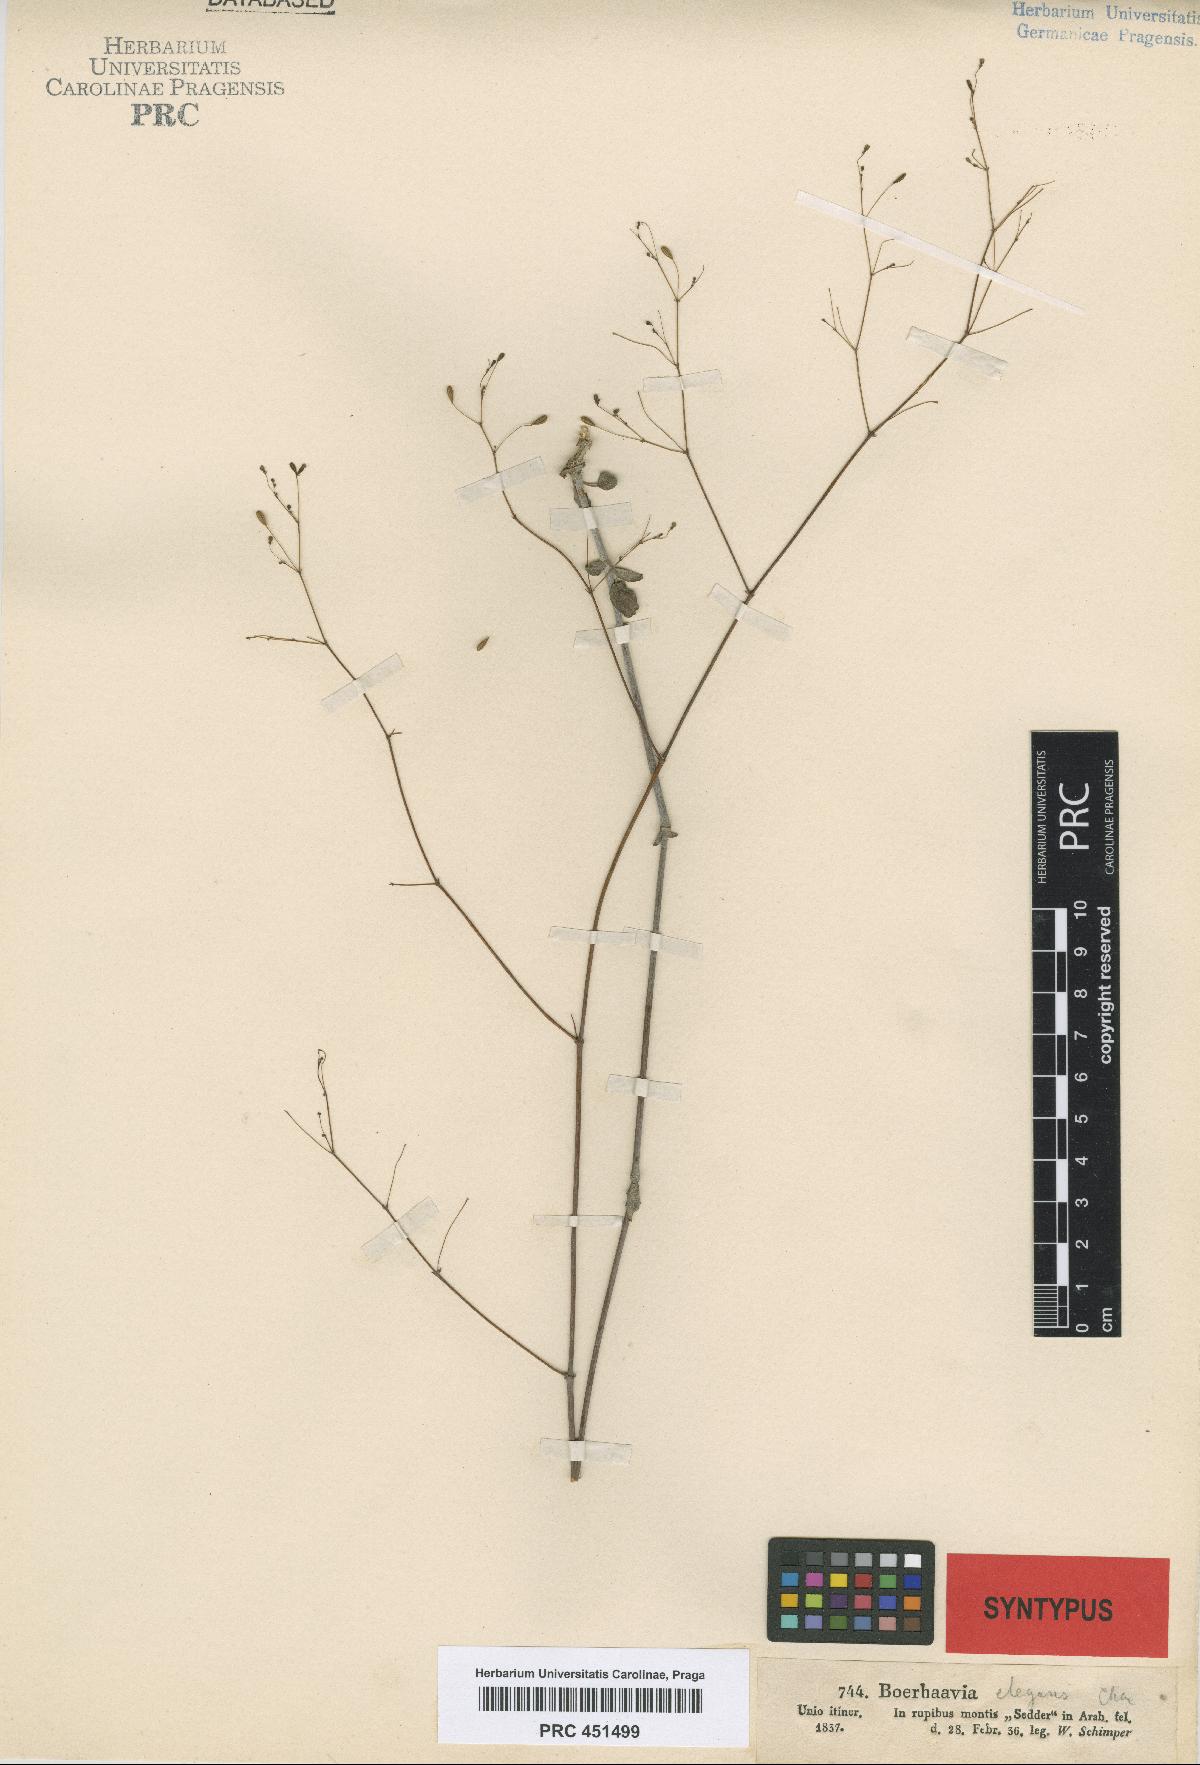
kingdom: Plantae
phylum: Tracheophyta
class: Magnoliopsida
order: Caryophyllales
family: Nyctaginaceae
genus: Boerhavia
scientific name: Boerhavia elegans
